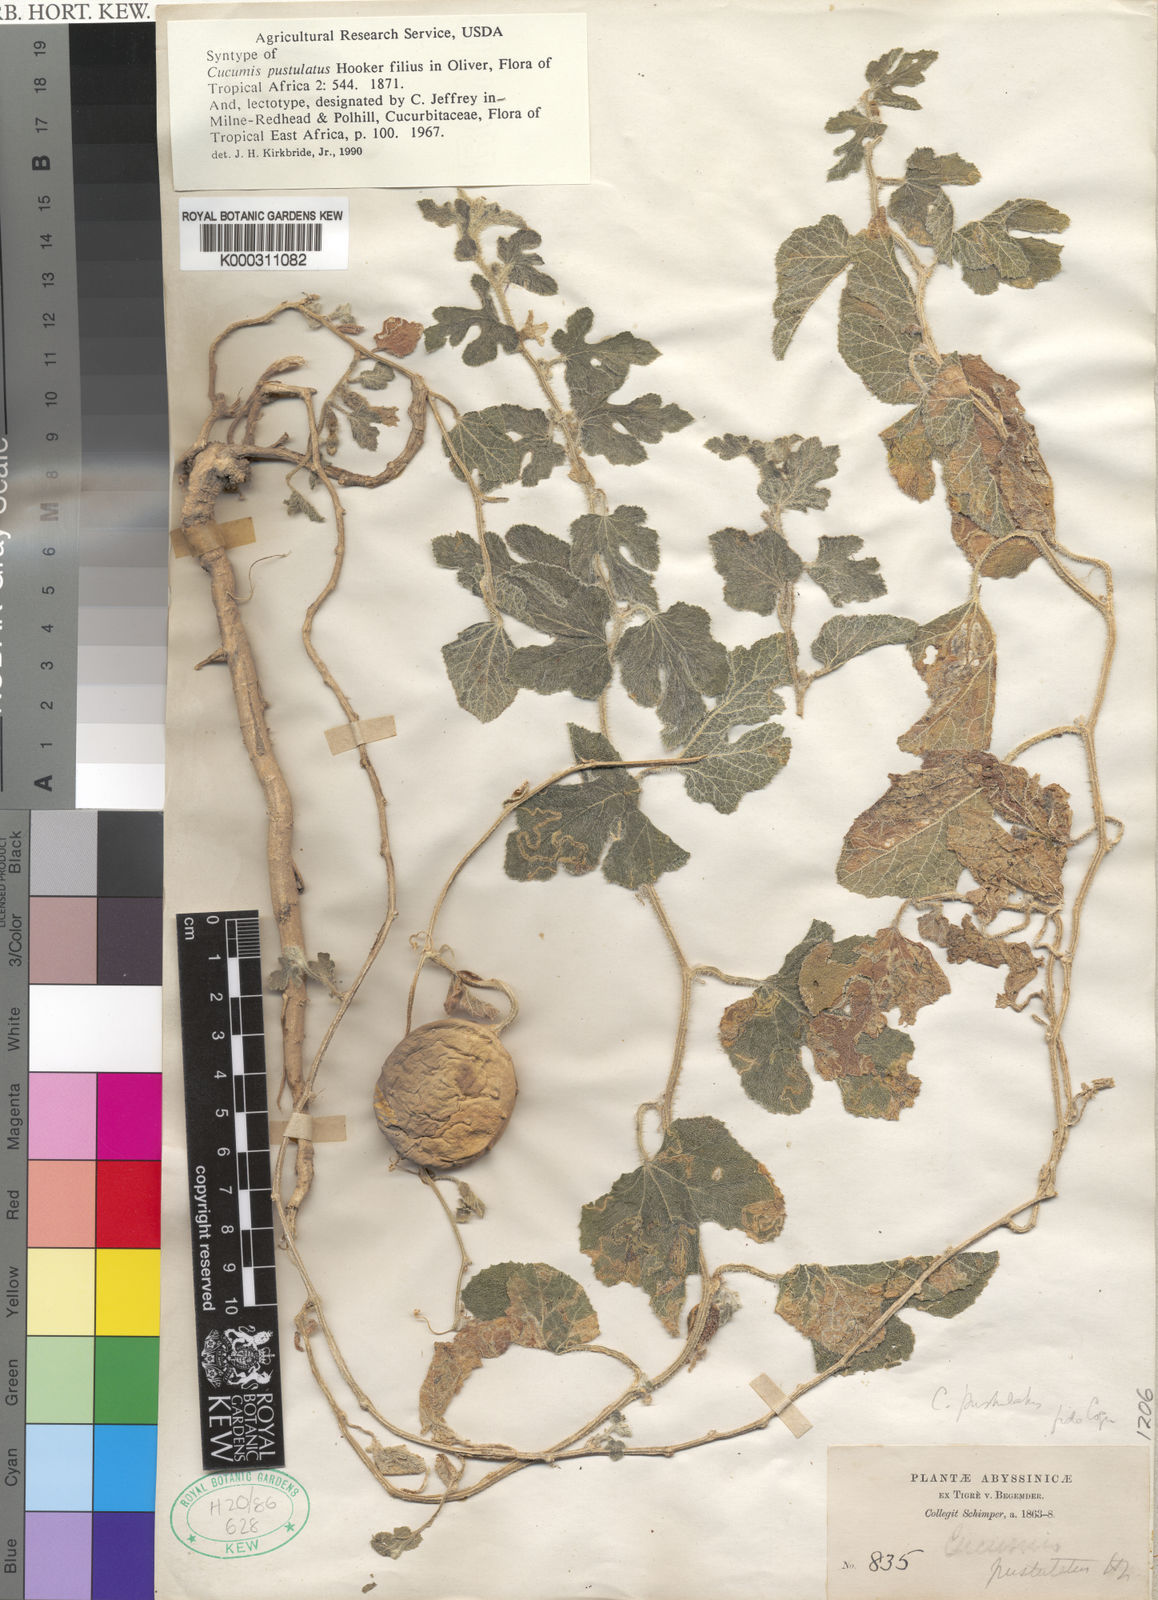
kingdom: Plantae
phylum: Tracheophyta
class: Magnoliopsida
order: Cucurbitales
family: Cucurbitaceae
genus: Cucumis
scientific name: Cucumis pustulatus
